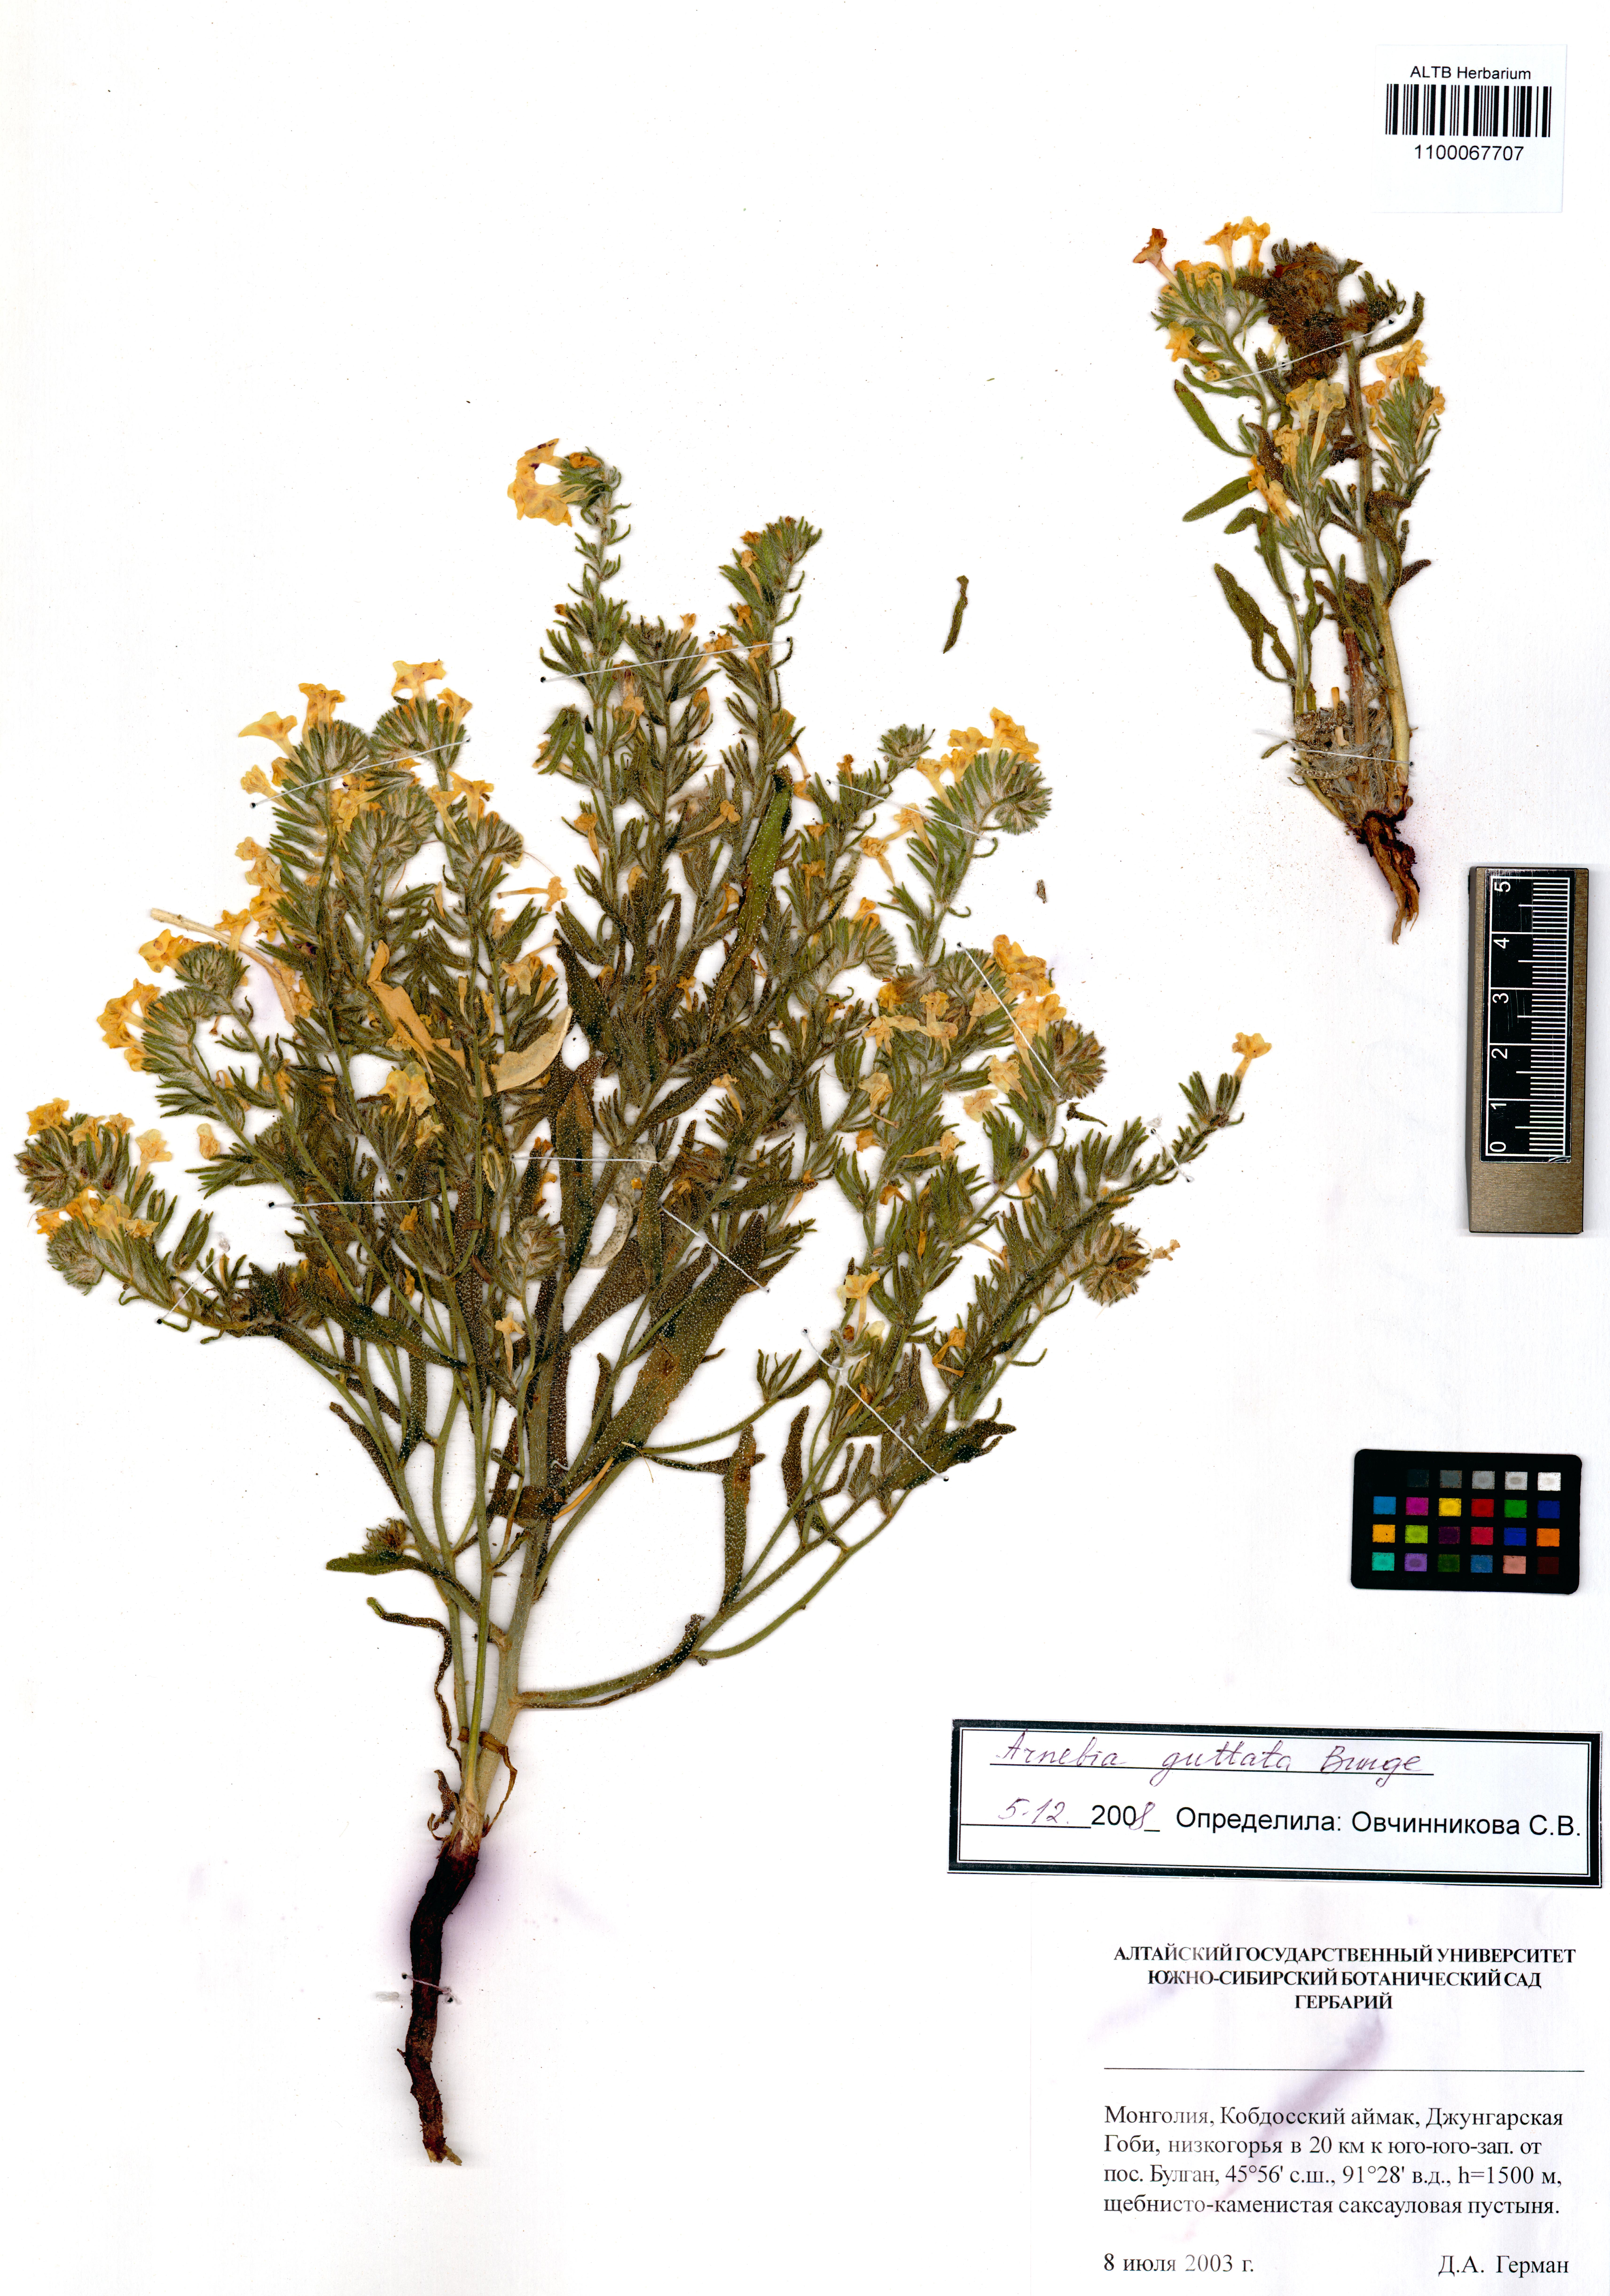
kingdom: Plantae
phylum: Tracheophyta
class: Magnoliopsida
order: Boraginales
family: Boraginaceae
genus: Arnebia
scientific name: Arnebia guttata
